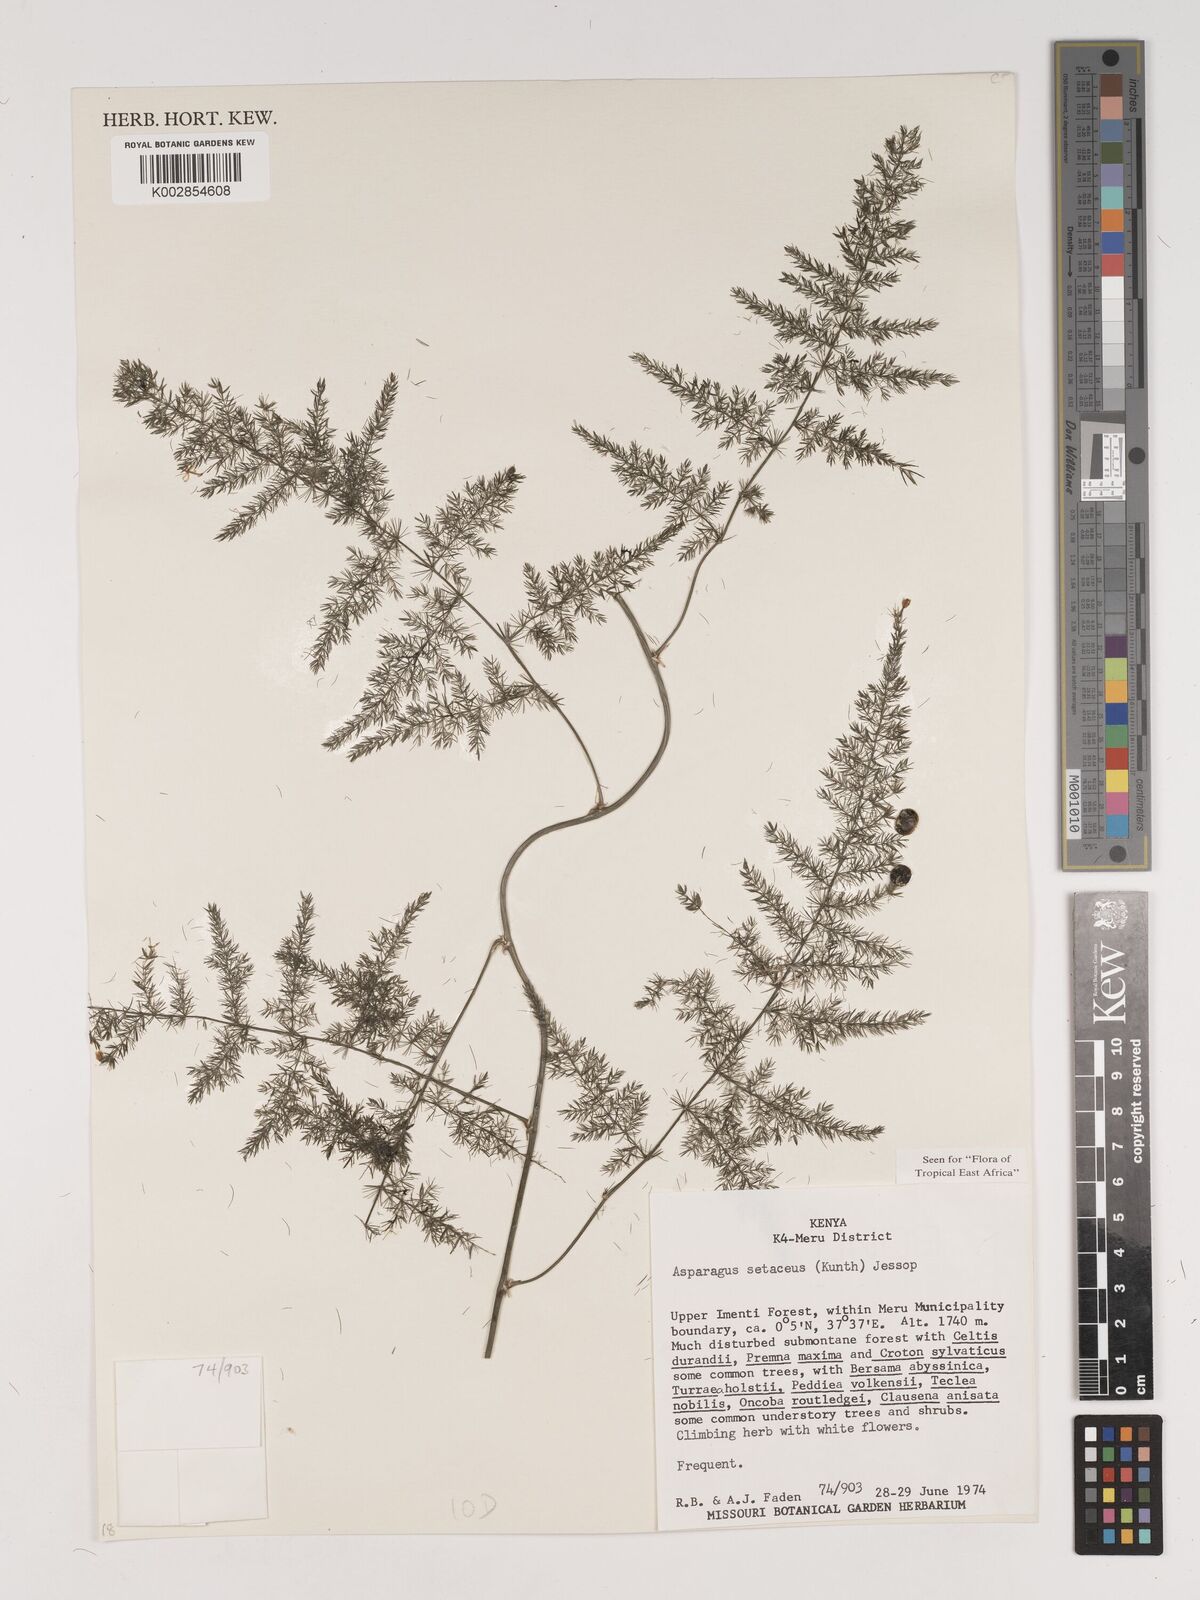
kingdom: Plantae
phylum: Tracheophyta
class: Liliopsida
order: Asparagales
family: Asparagaceae
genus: Asparagus
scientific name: Asparagus setaceus
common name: Common asparagus fern
